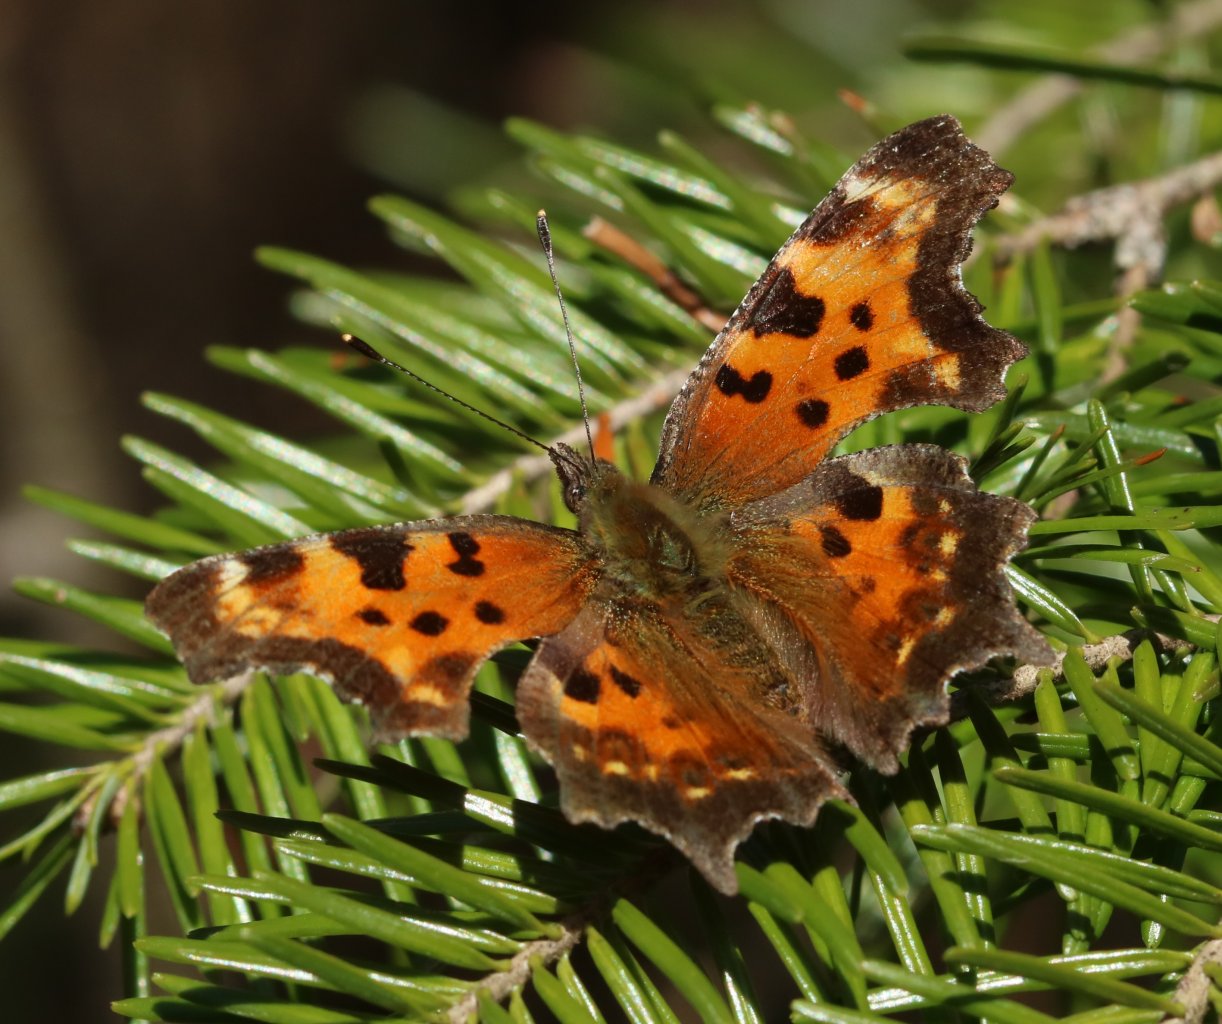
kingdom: Animalia
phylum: Arthropoda
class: Insecta
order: Lepidoptera
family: Nymphalidae
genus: Polygonia
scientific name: Polygonia comma
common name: Eastern Comma
